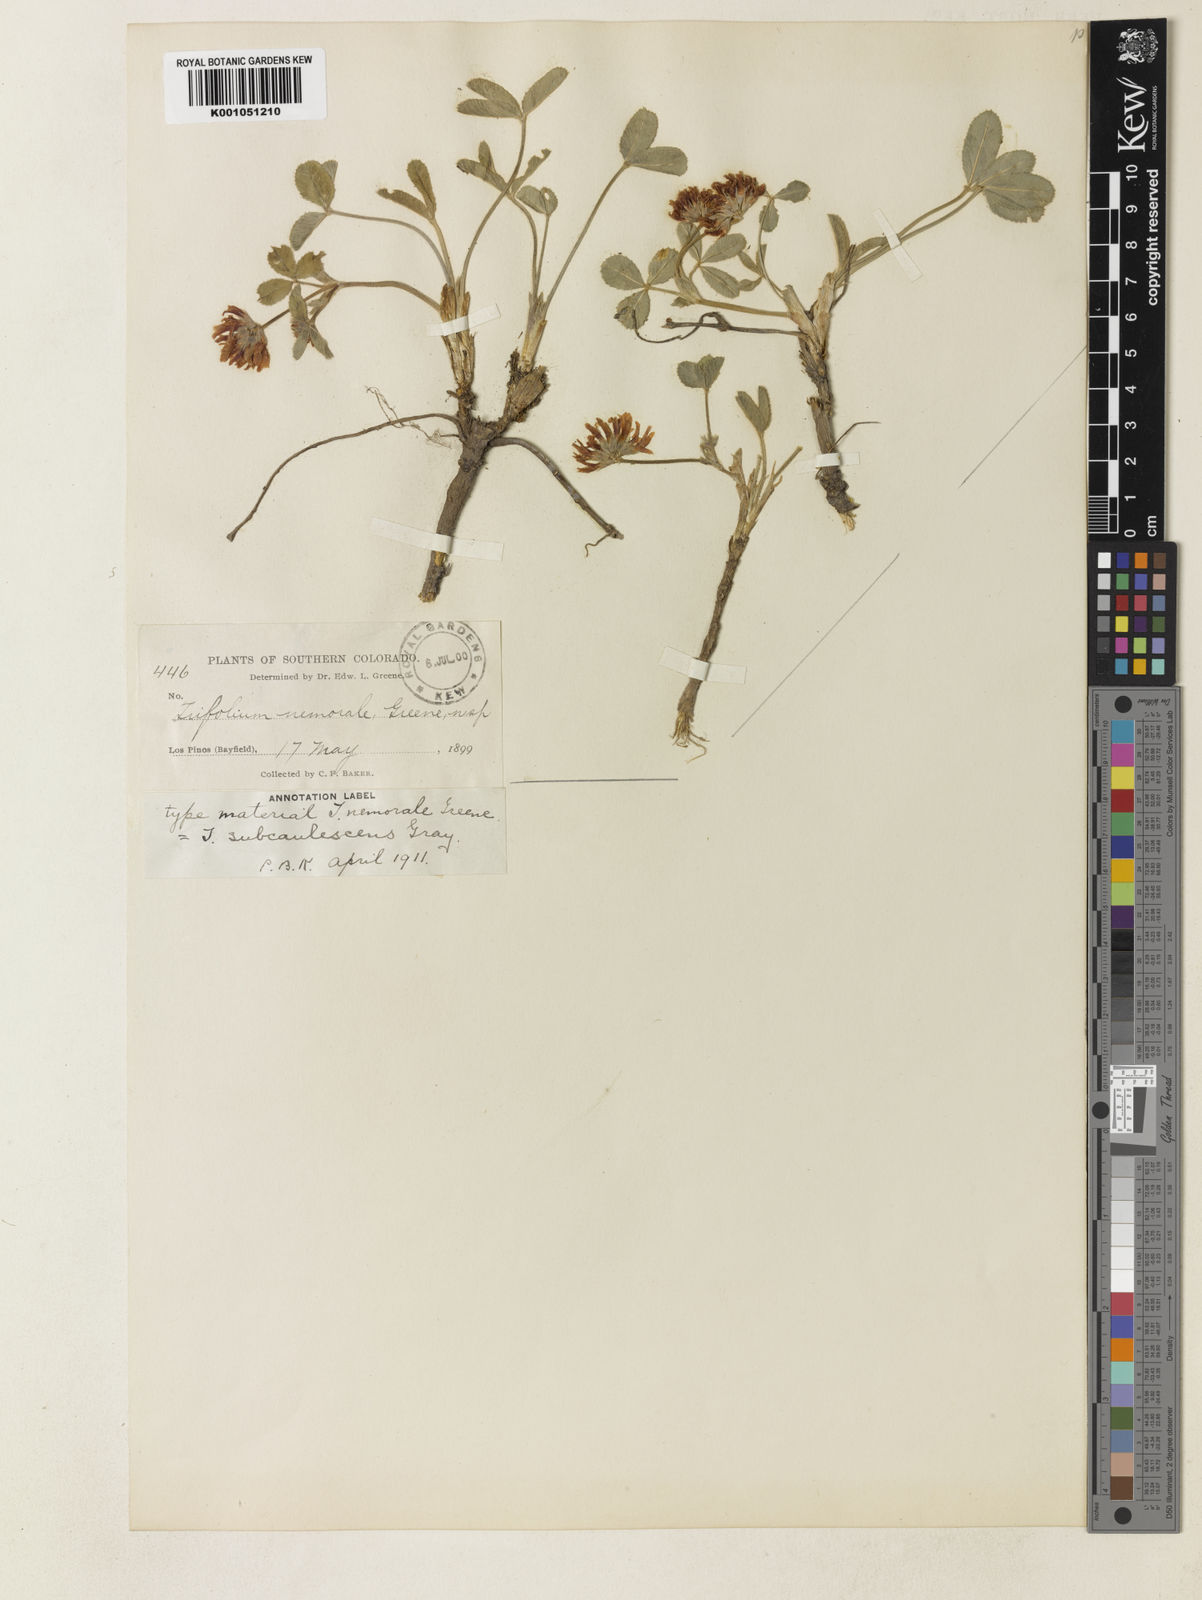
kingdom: Plantae
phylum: Tracheophyta
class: Magnoliopsida
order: Fabales
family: Fabaceae
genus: Trifolium
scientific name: Trifolium gymnocarpon
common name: Tufted clover
